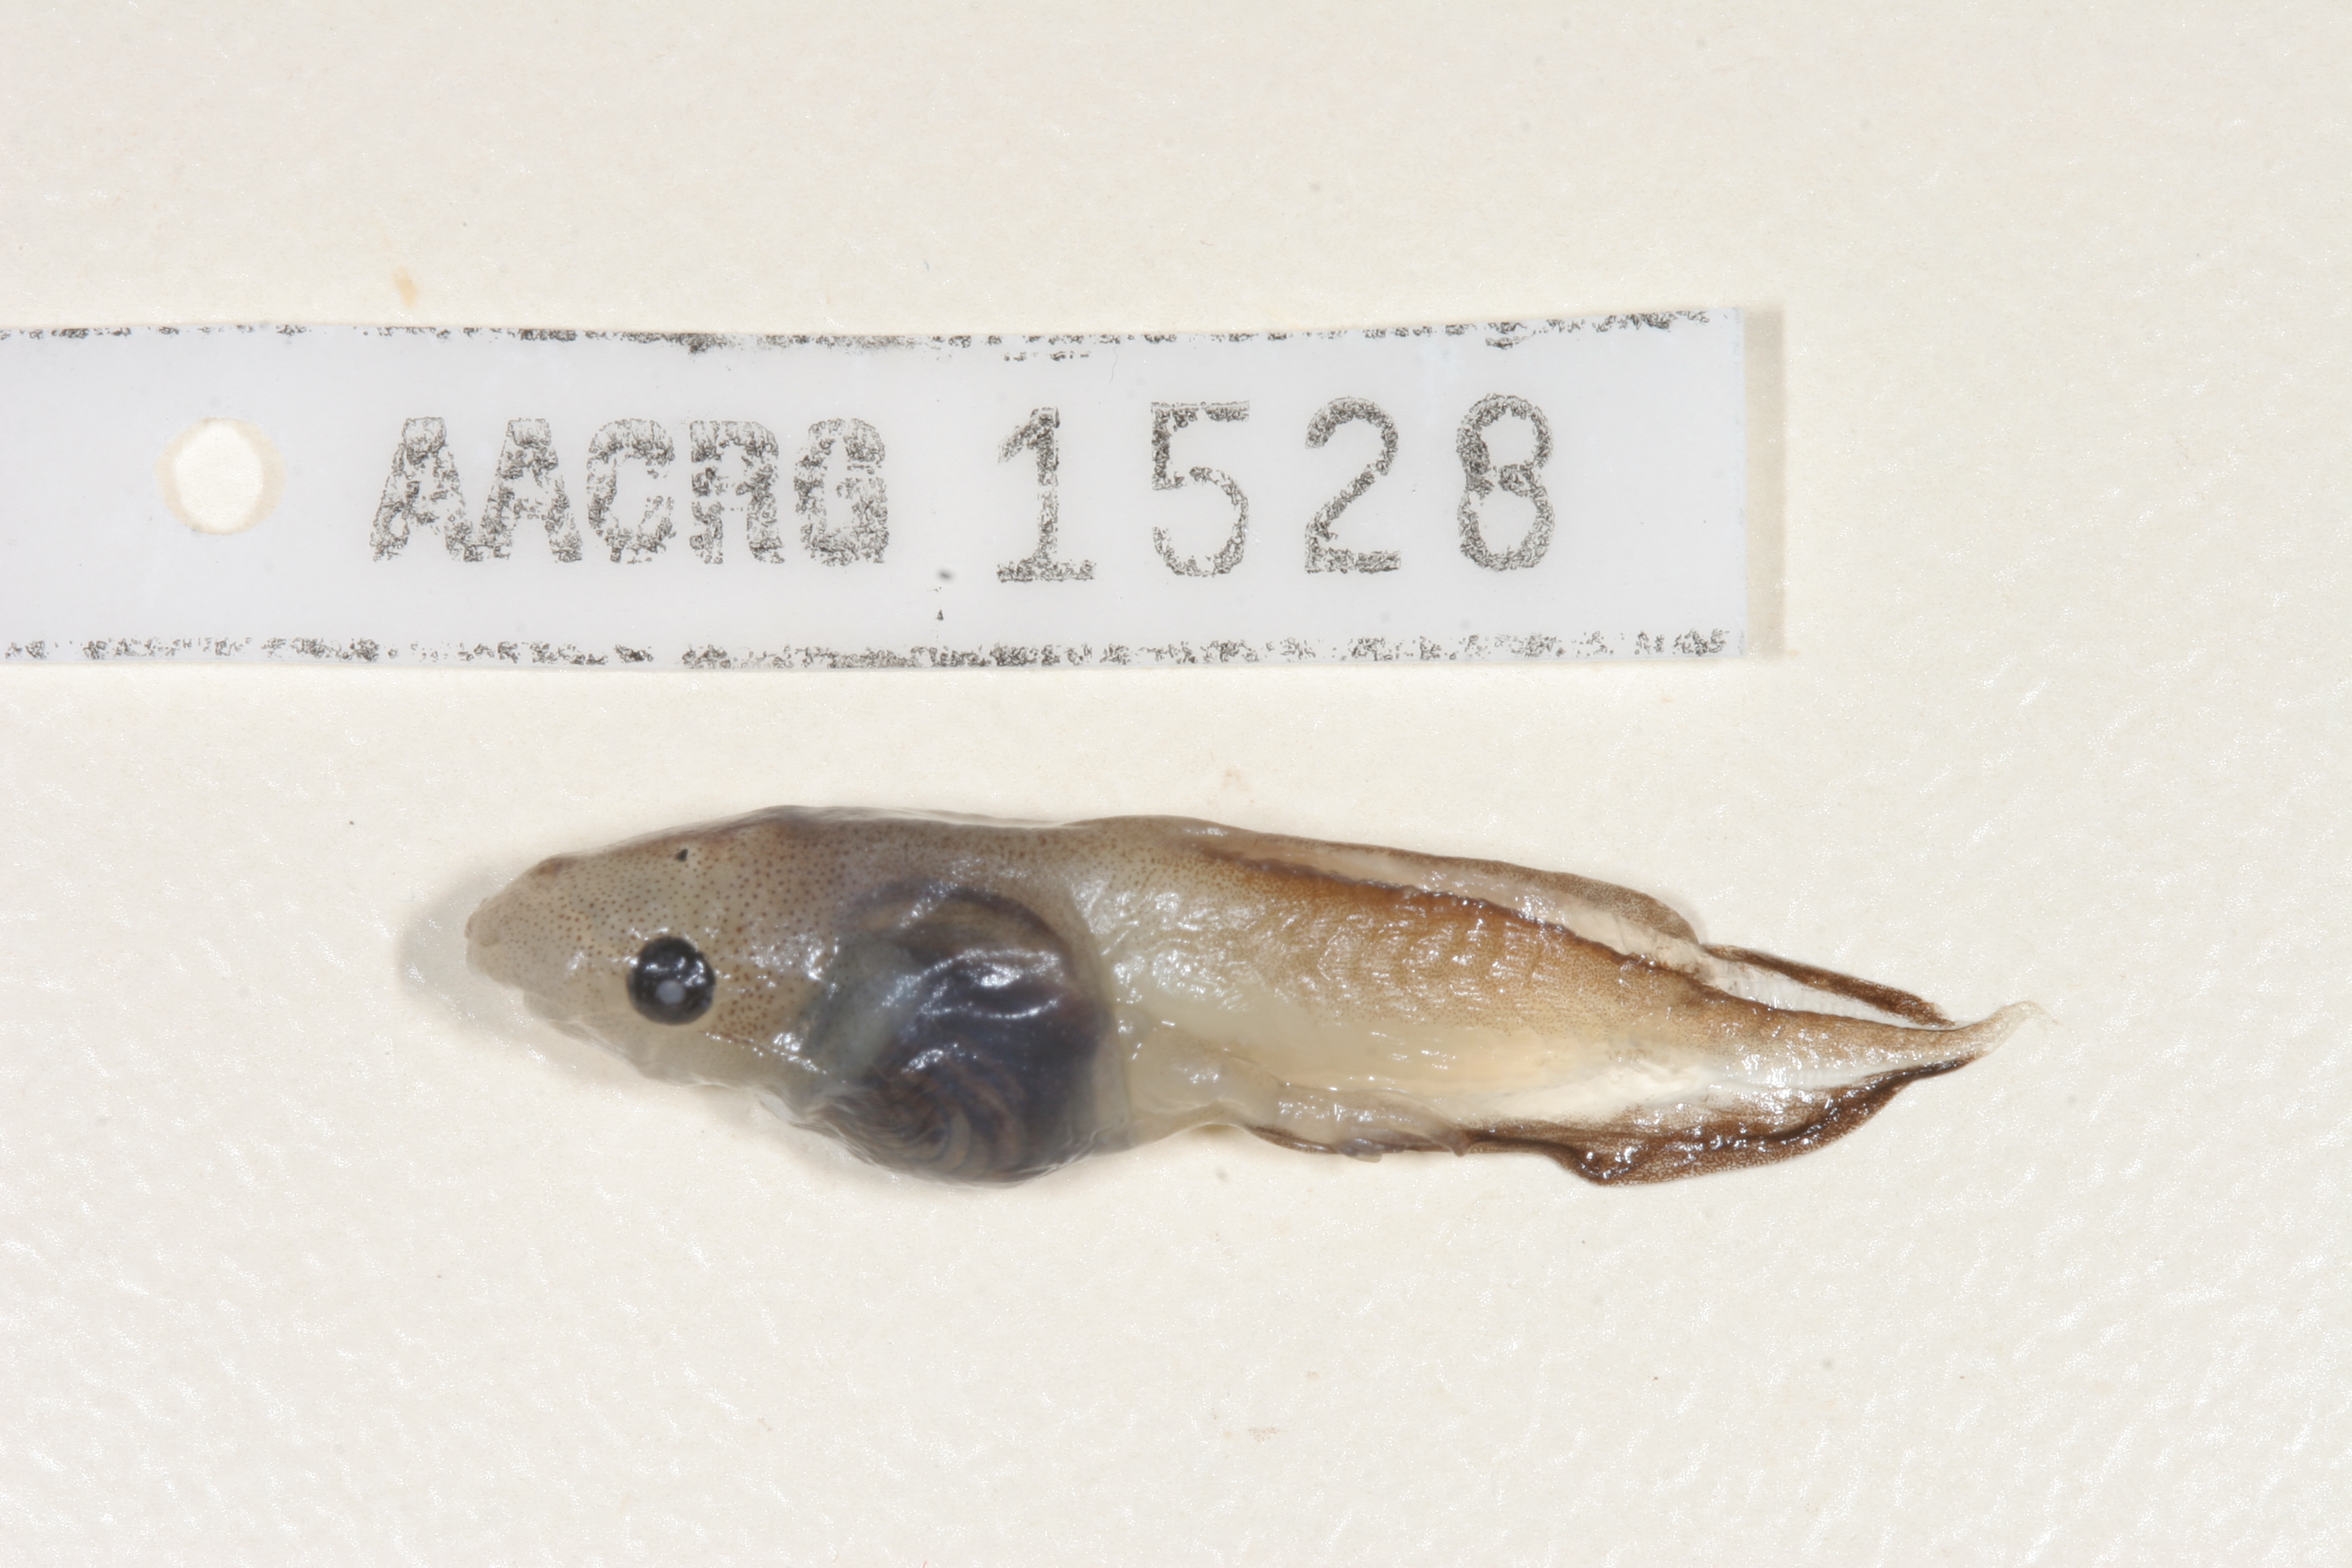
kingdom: Animalia
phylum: Chordata
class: Amphibia
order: Anura
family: Microhylidae
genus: Phrynomantis
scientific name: Phrynomantis bifasciatus
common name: Banded rubber frog
